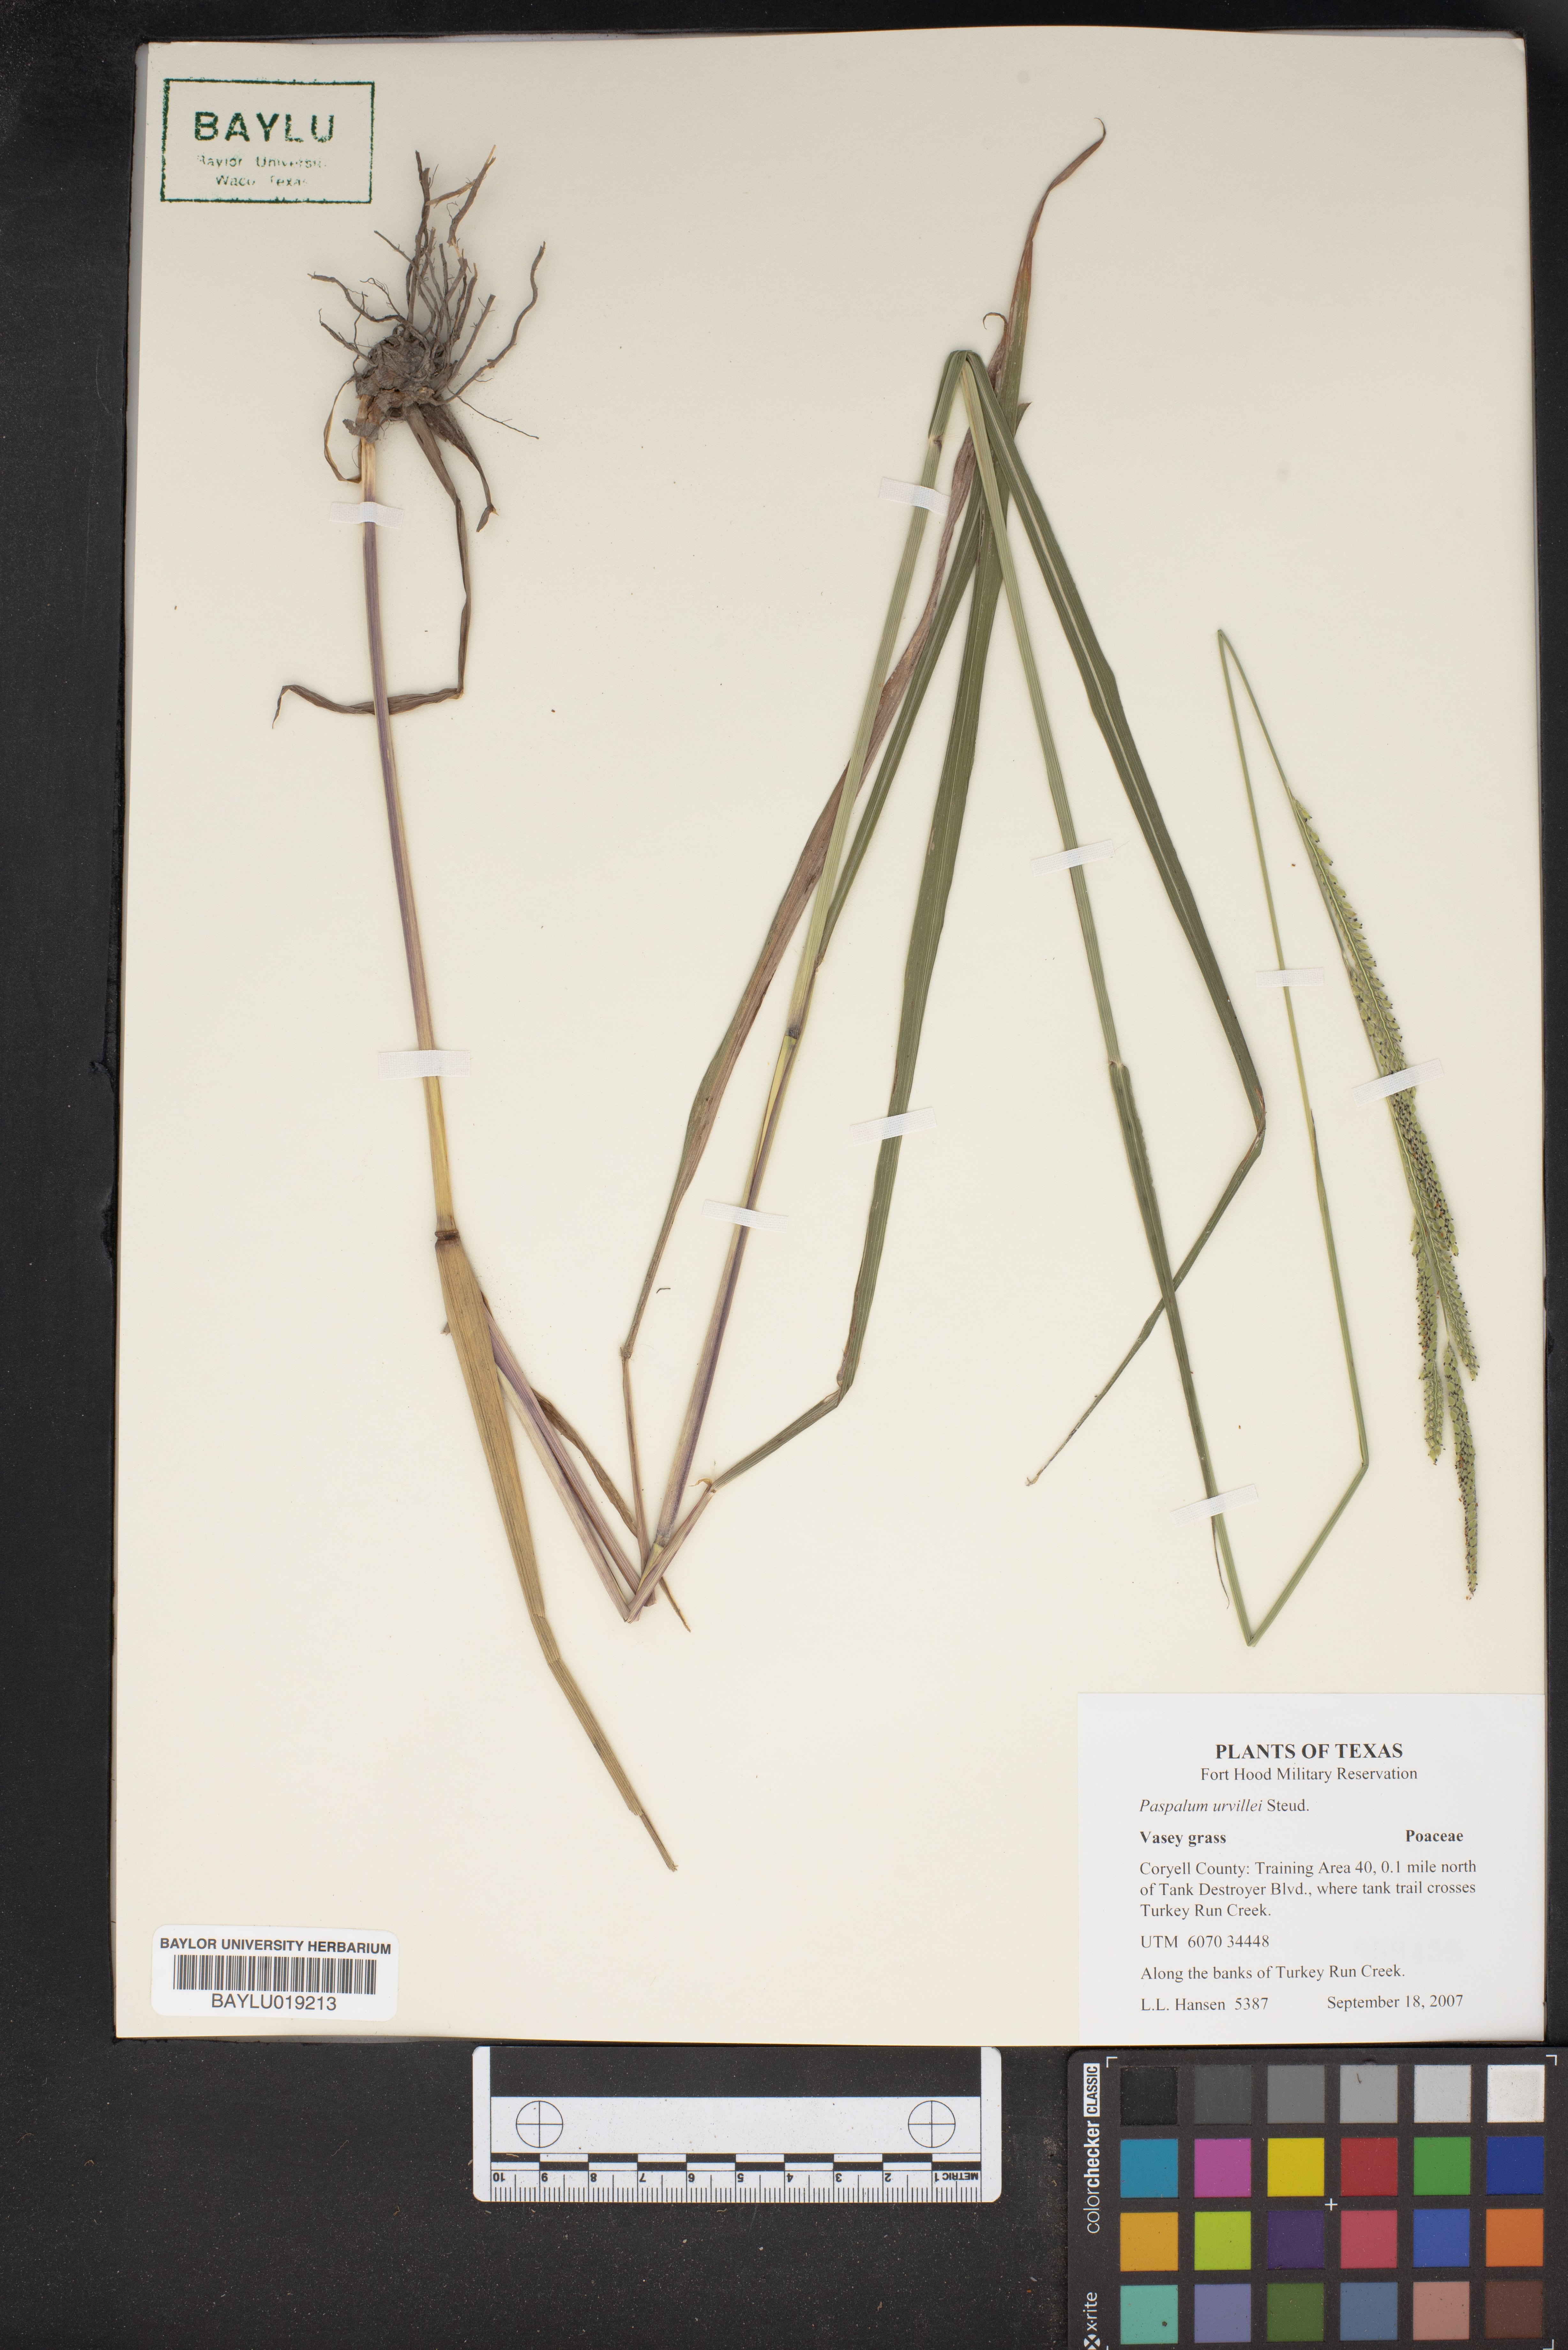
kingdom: Plantae
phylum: Tracheophyta
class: Liliopsida
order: Poales
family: Poaceae
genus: Paspalum
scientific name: Paspalum urvillei
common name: Vasey's grass
